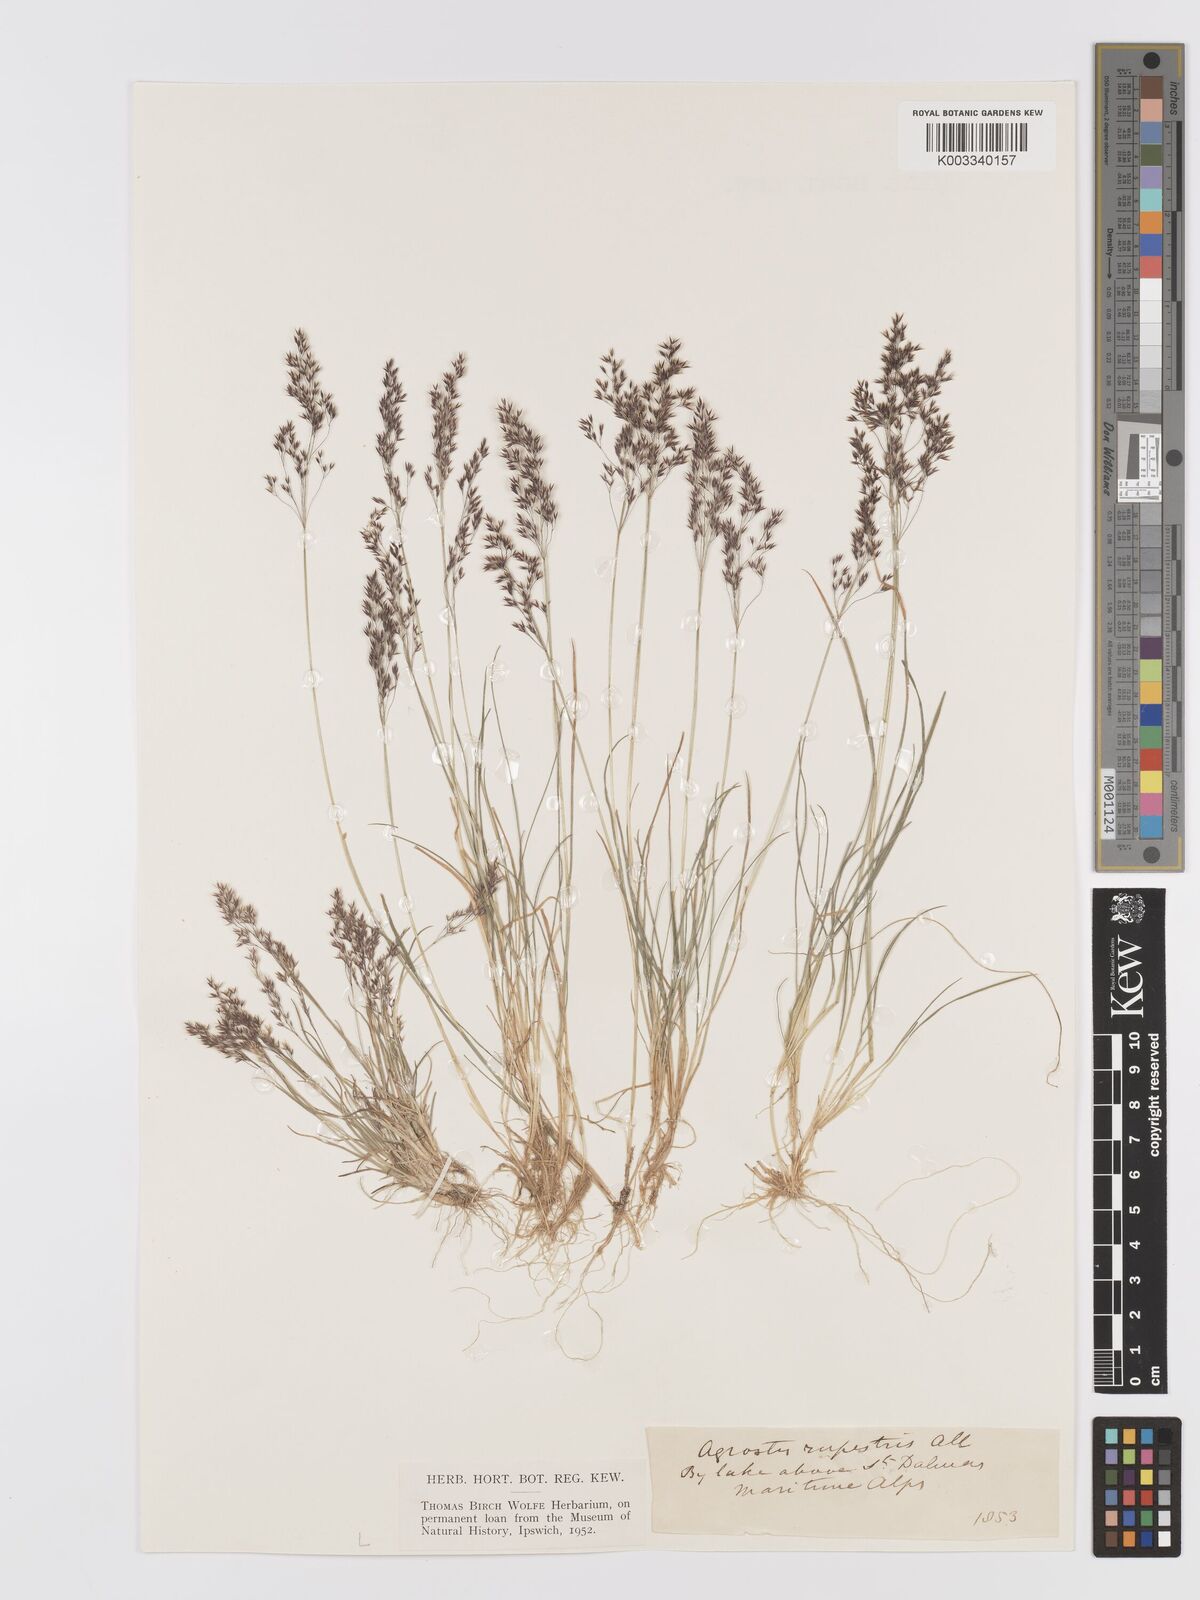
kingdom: Plantae
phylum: Tracheophyta
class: Liliopsida
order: Poales
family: Poaceae
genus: Agrostis
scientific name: Agrostis rupestris
